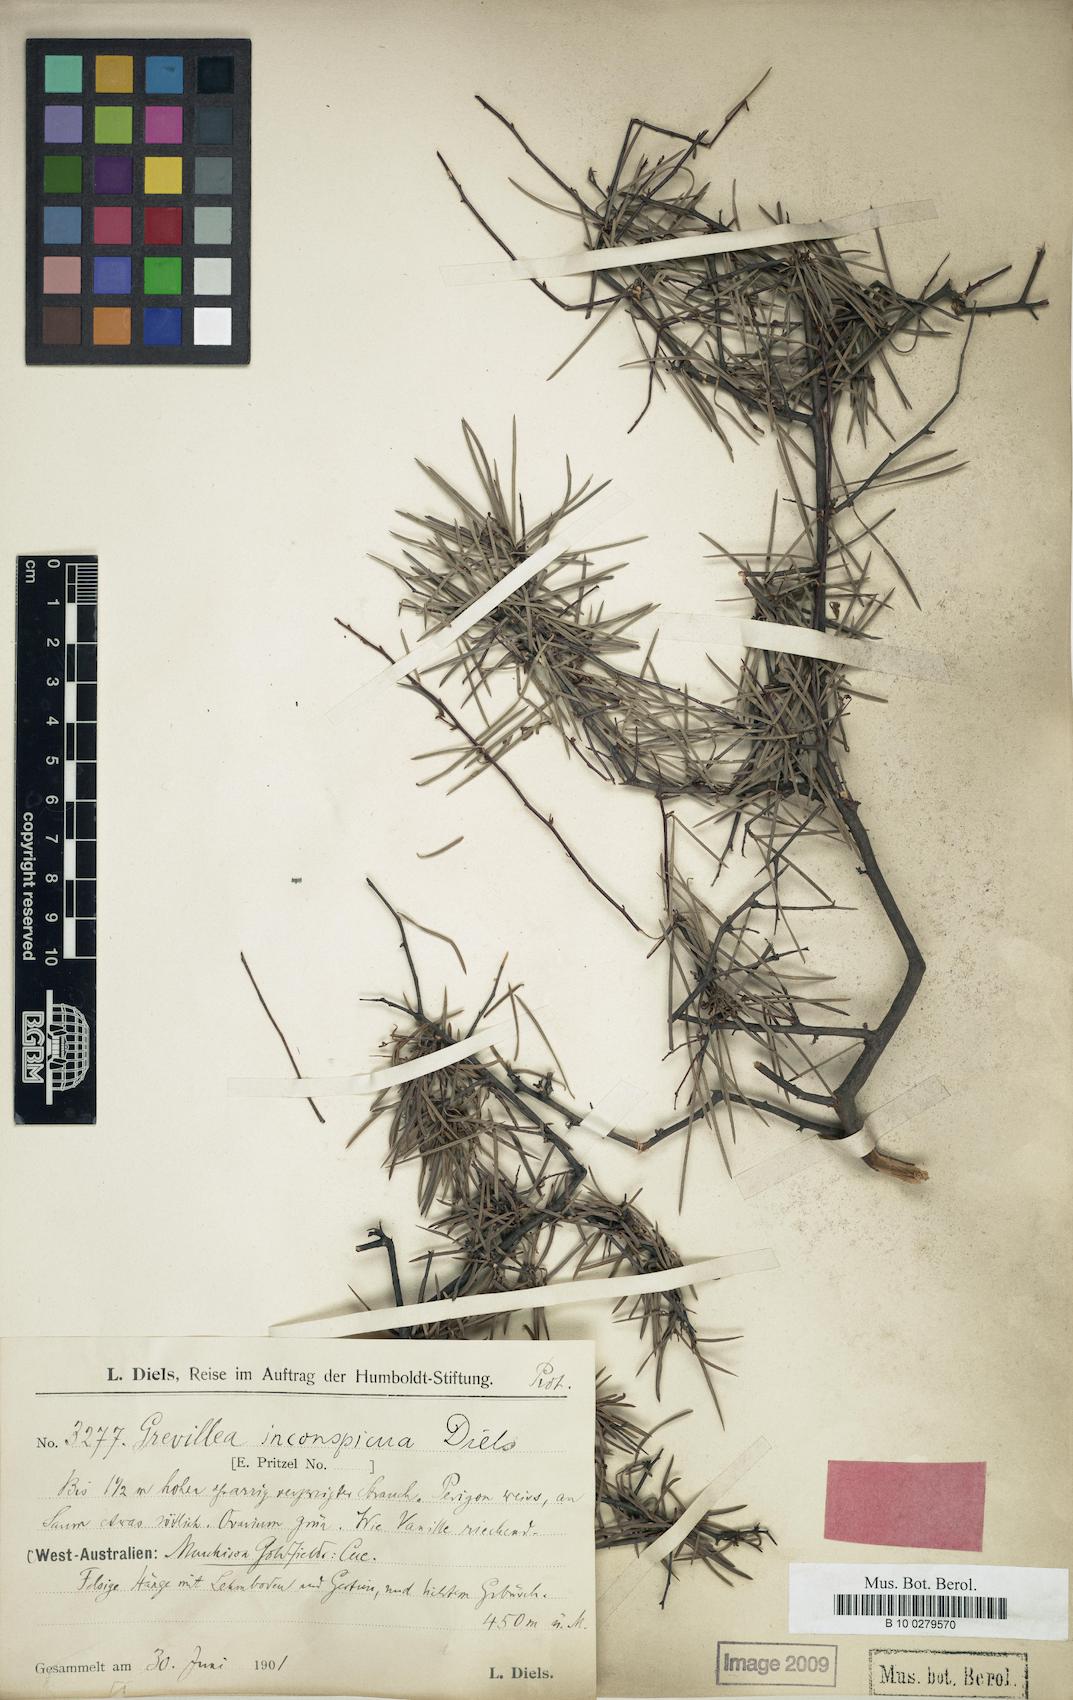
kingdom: Plantae
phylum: Tracheophyta
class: Magnoliopsida
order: Proteales
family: Proteaceae
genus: Grevillea
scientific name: Grevillea inconspicua
